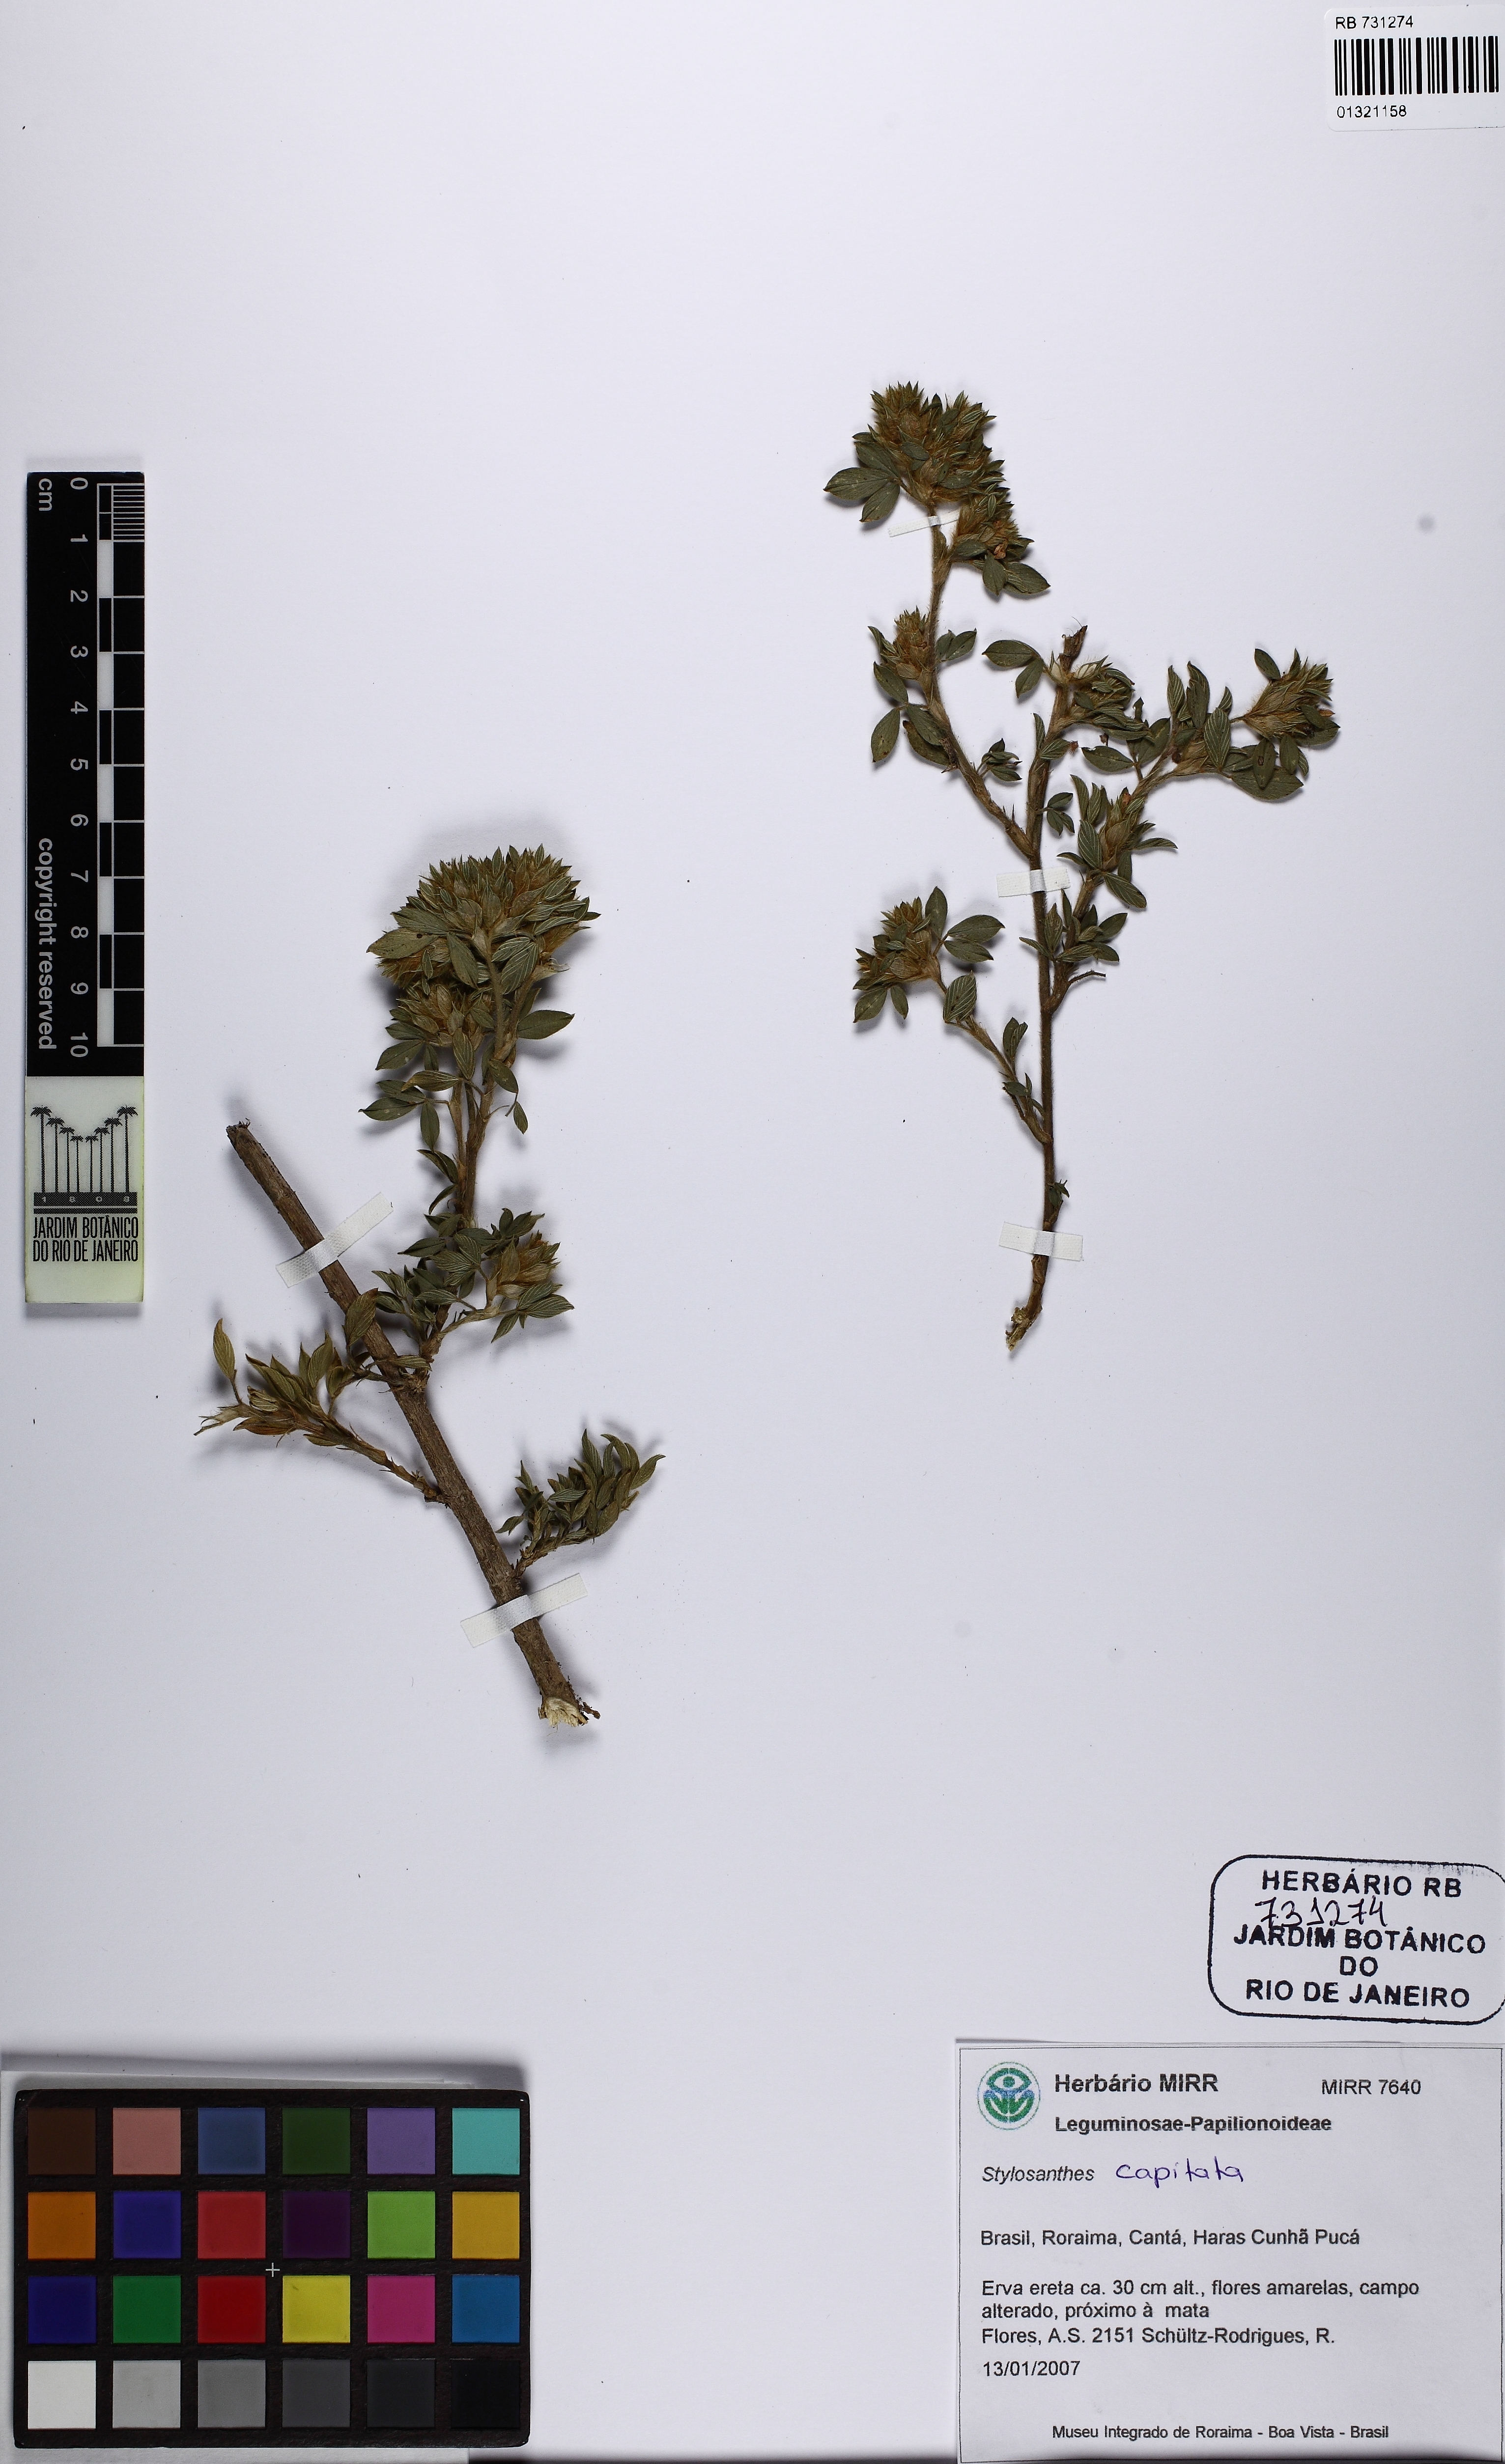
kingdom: Plantae
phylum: Tracheophyta
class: Magnoliopsida
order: Fabales
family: Fabaceae
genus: Stylosanthes
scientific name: Stylosanthes capitata
